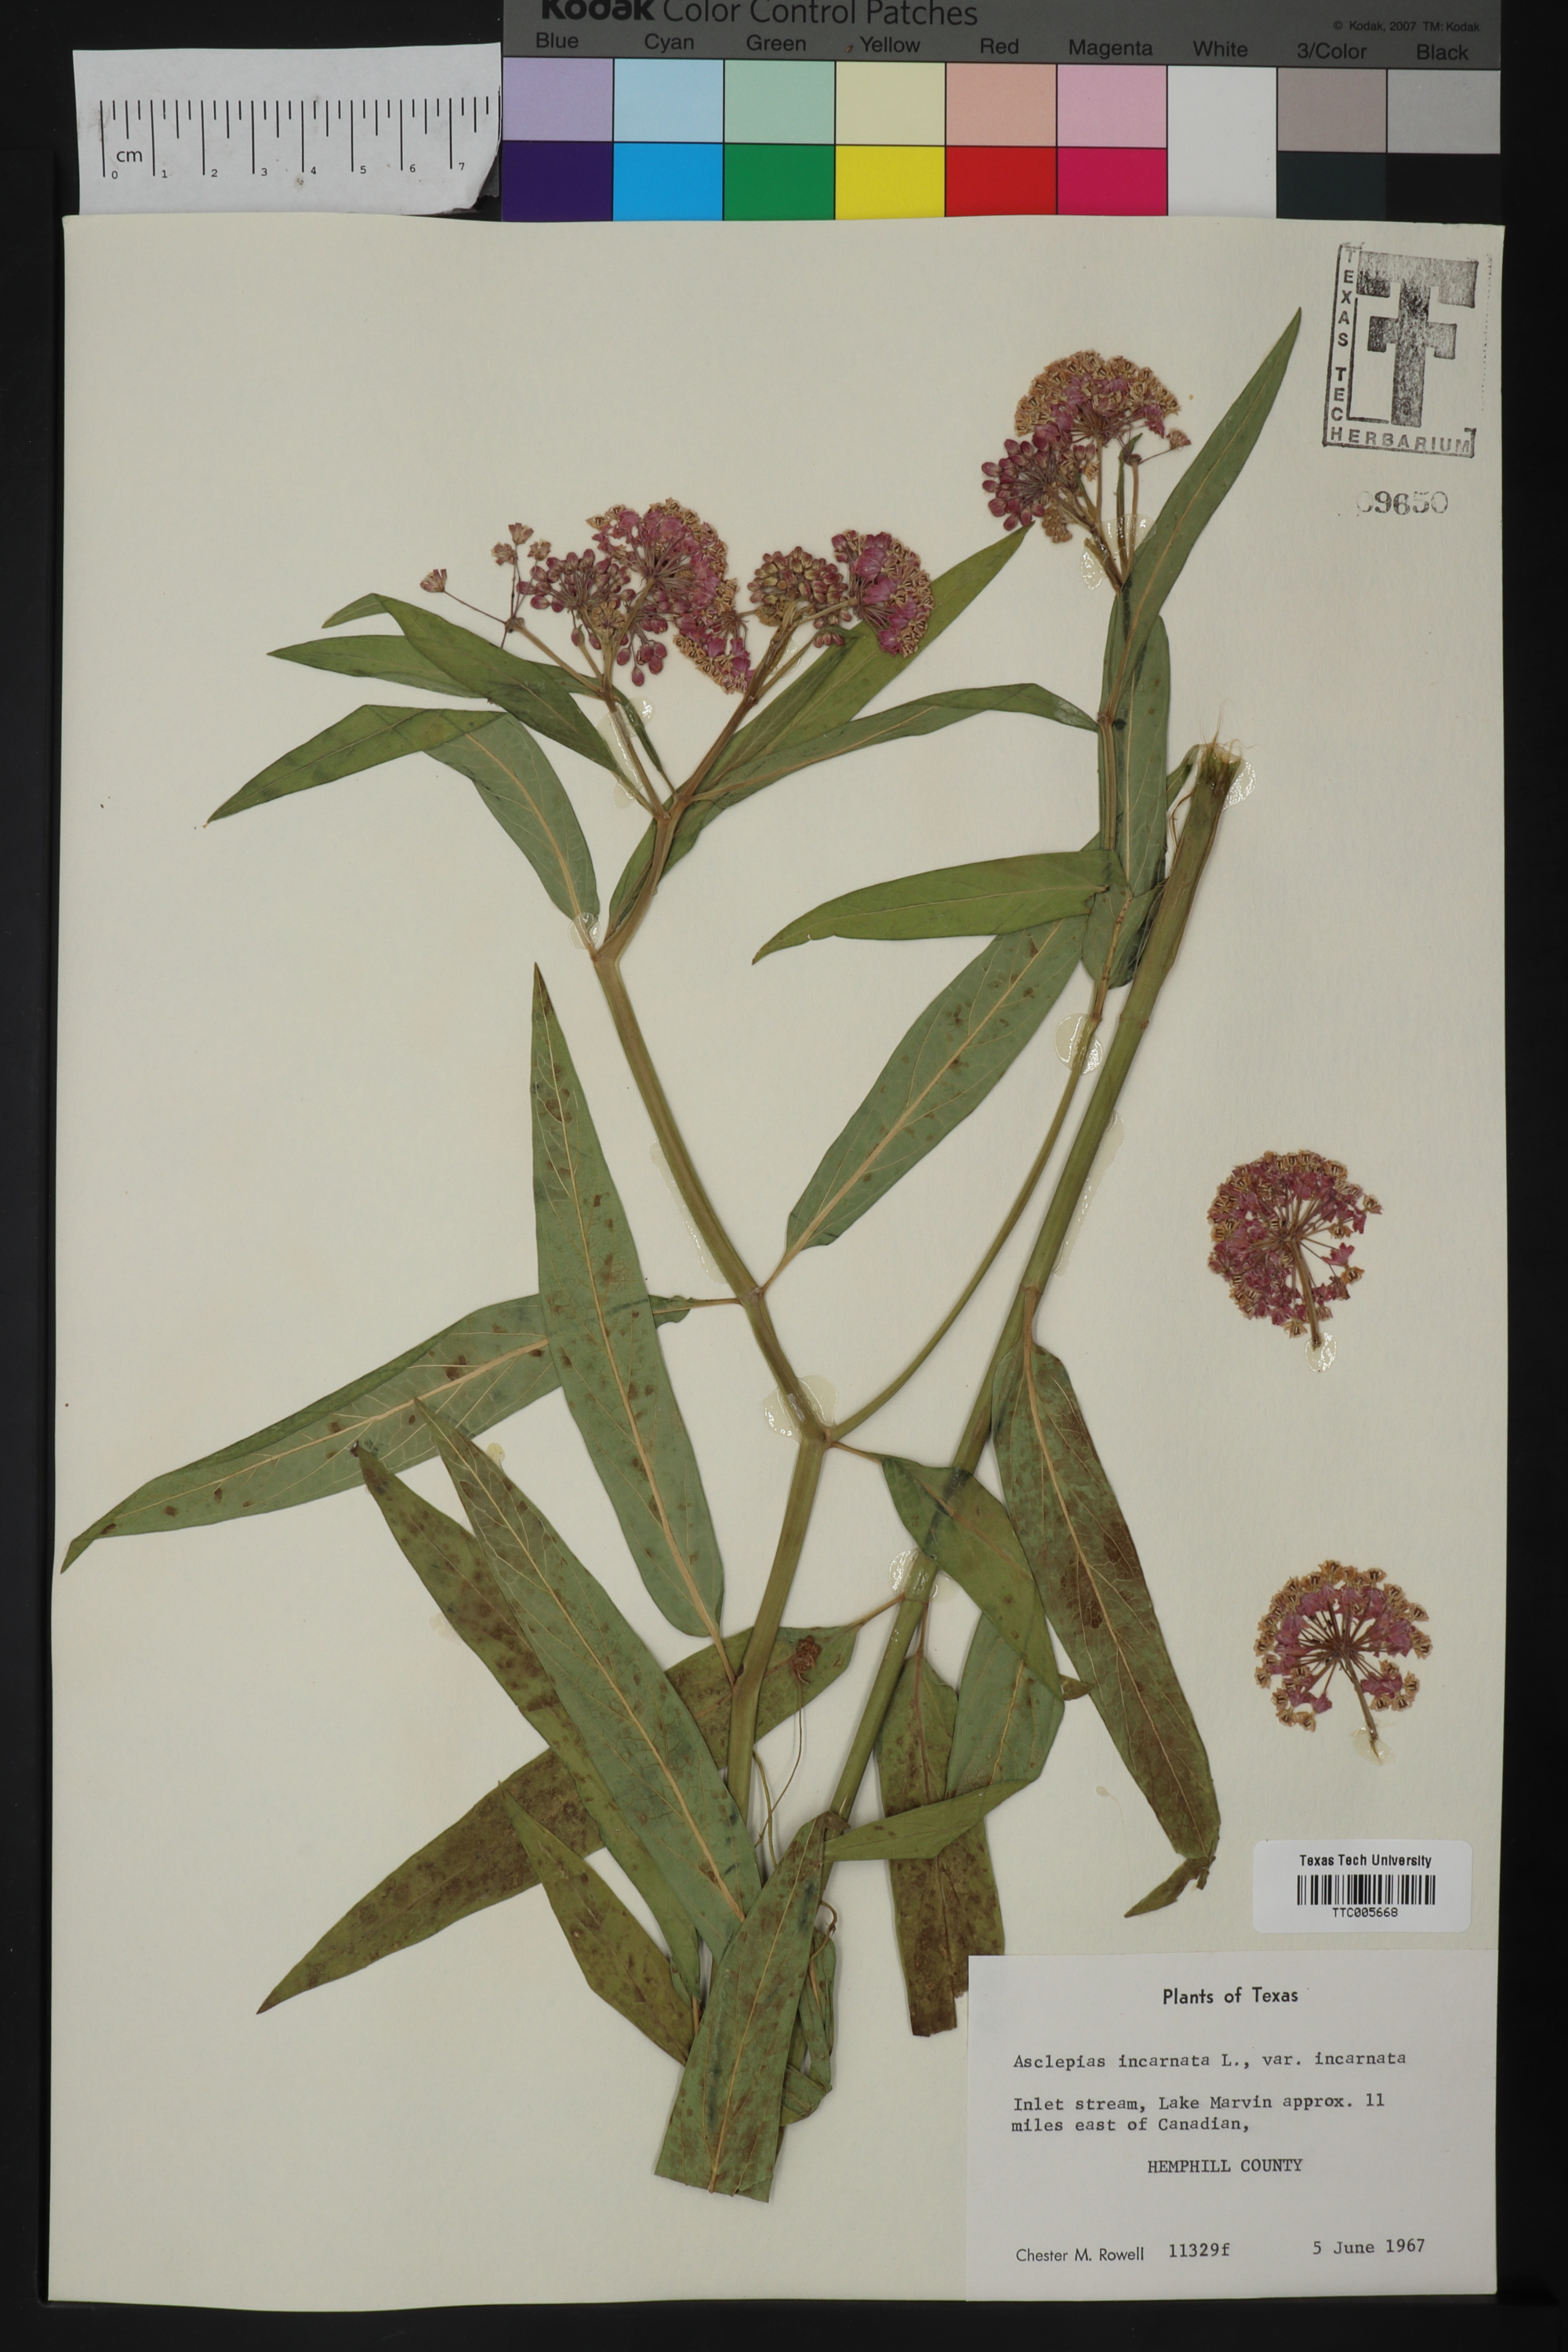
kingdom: Plantae
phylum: Tracheophyta
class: Magnoliopsida
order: Gentianales
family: Apocynaceae
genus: Asclepias
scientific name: Asclepias incarnata
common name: Swamp milkweed
